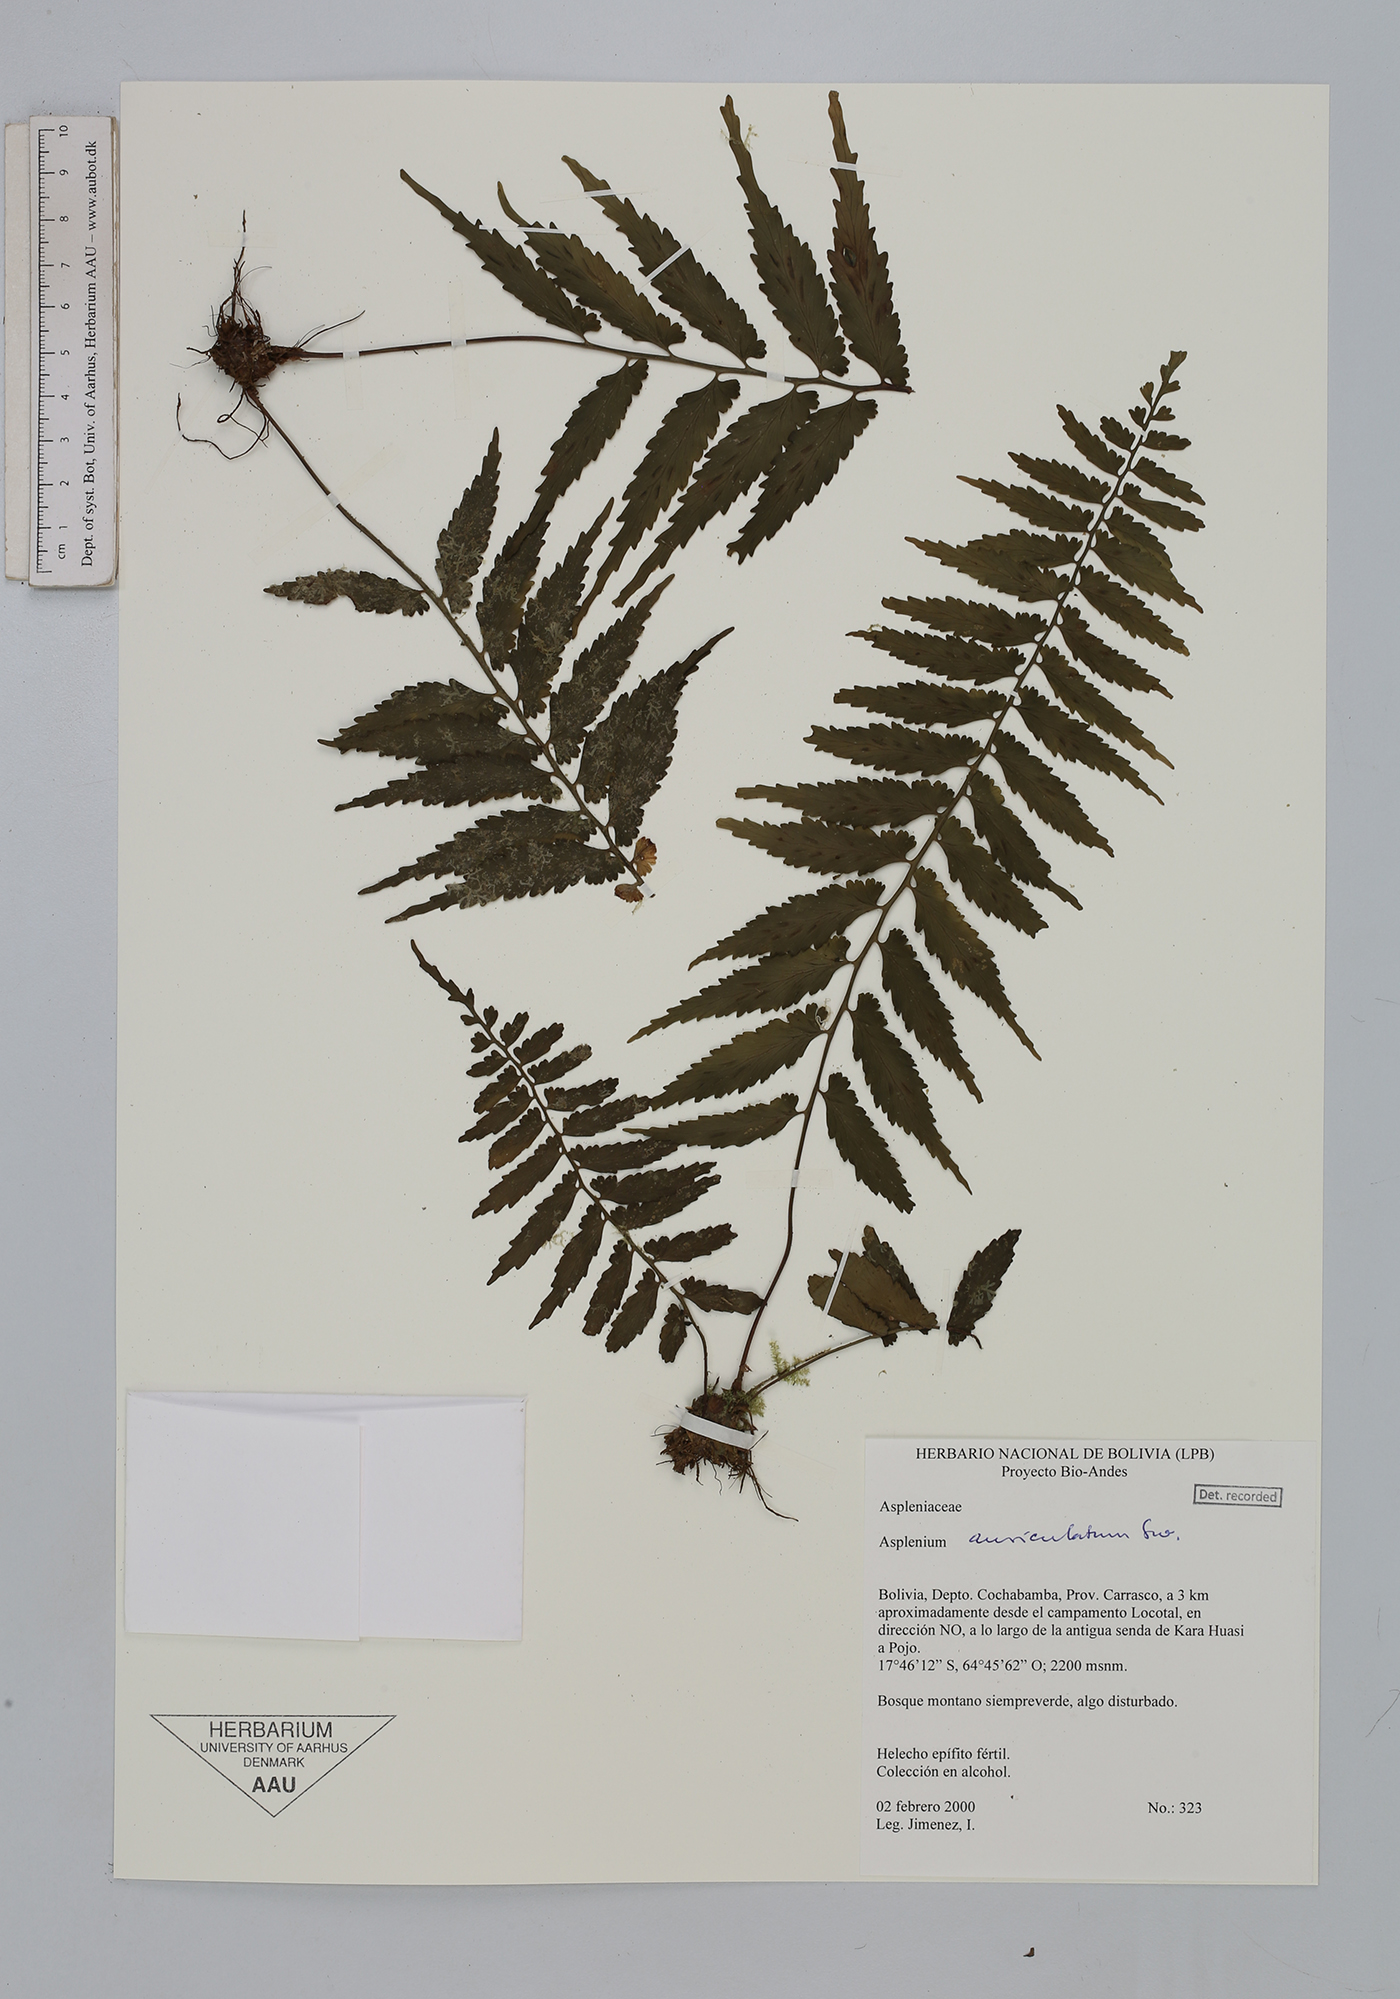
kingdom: Plantae
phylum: Tracheophyta
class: Polypodiopsida
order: Polypodiales
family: Aspleniaceae
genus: Asplenium
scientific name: Asplenium auriculatum
